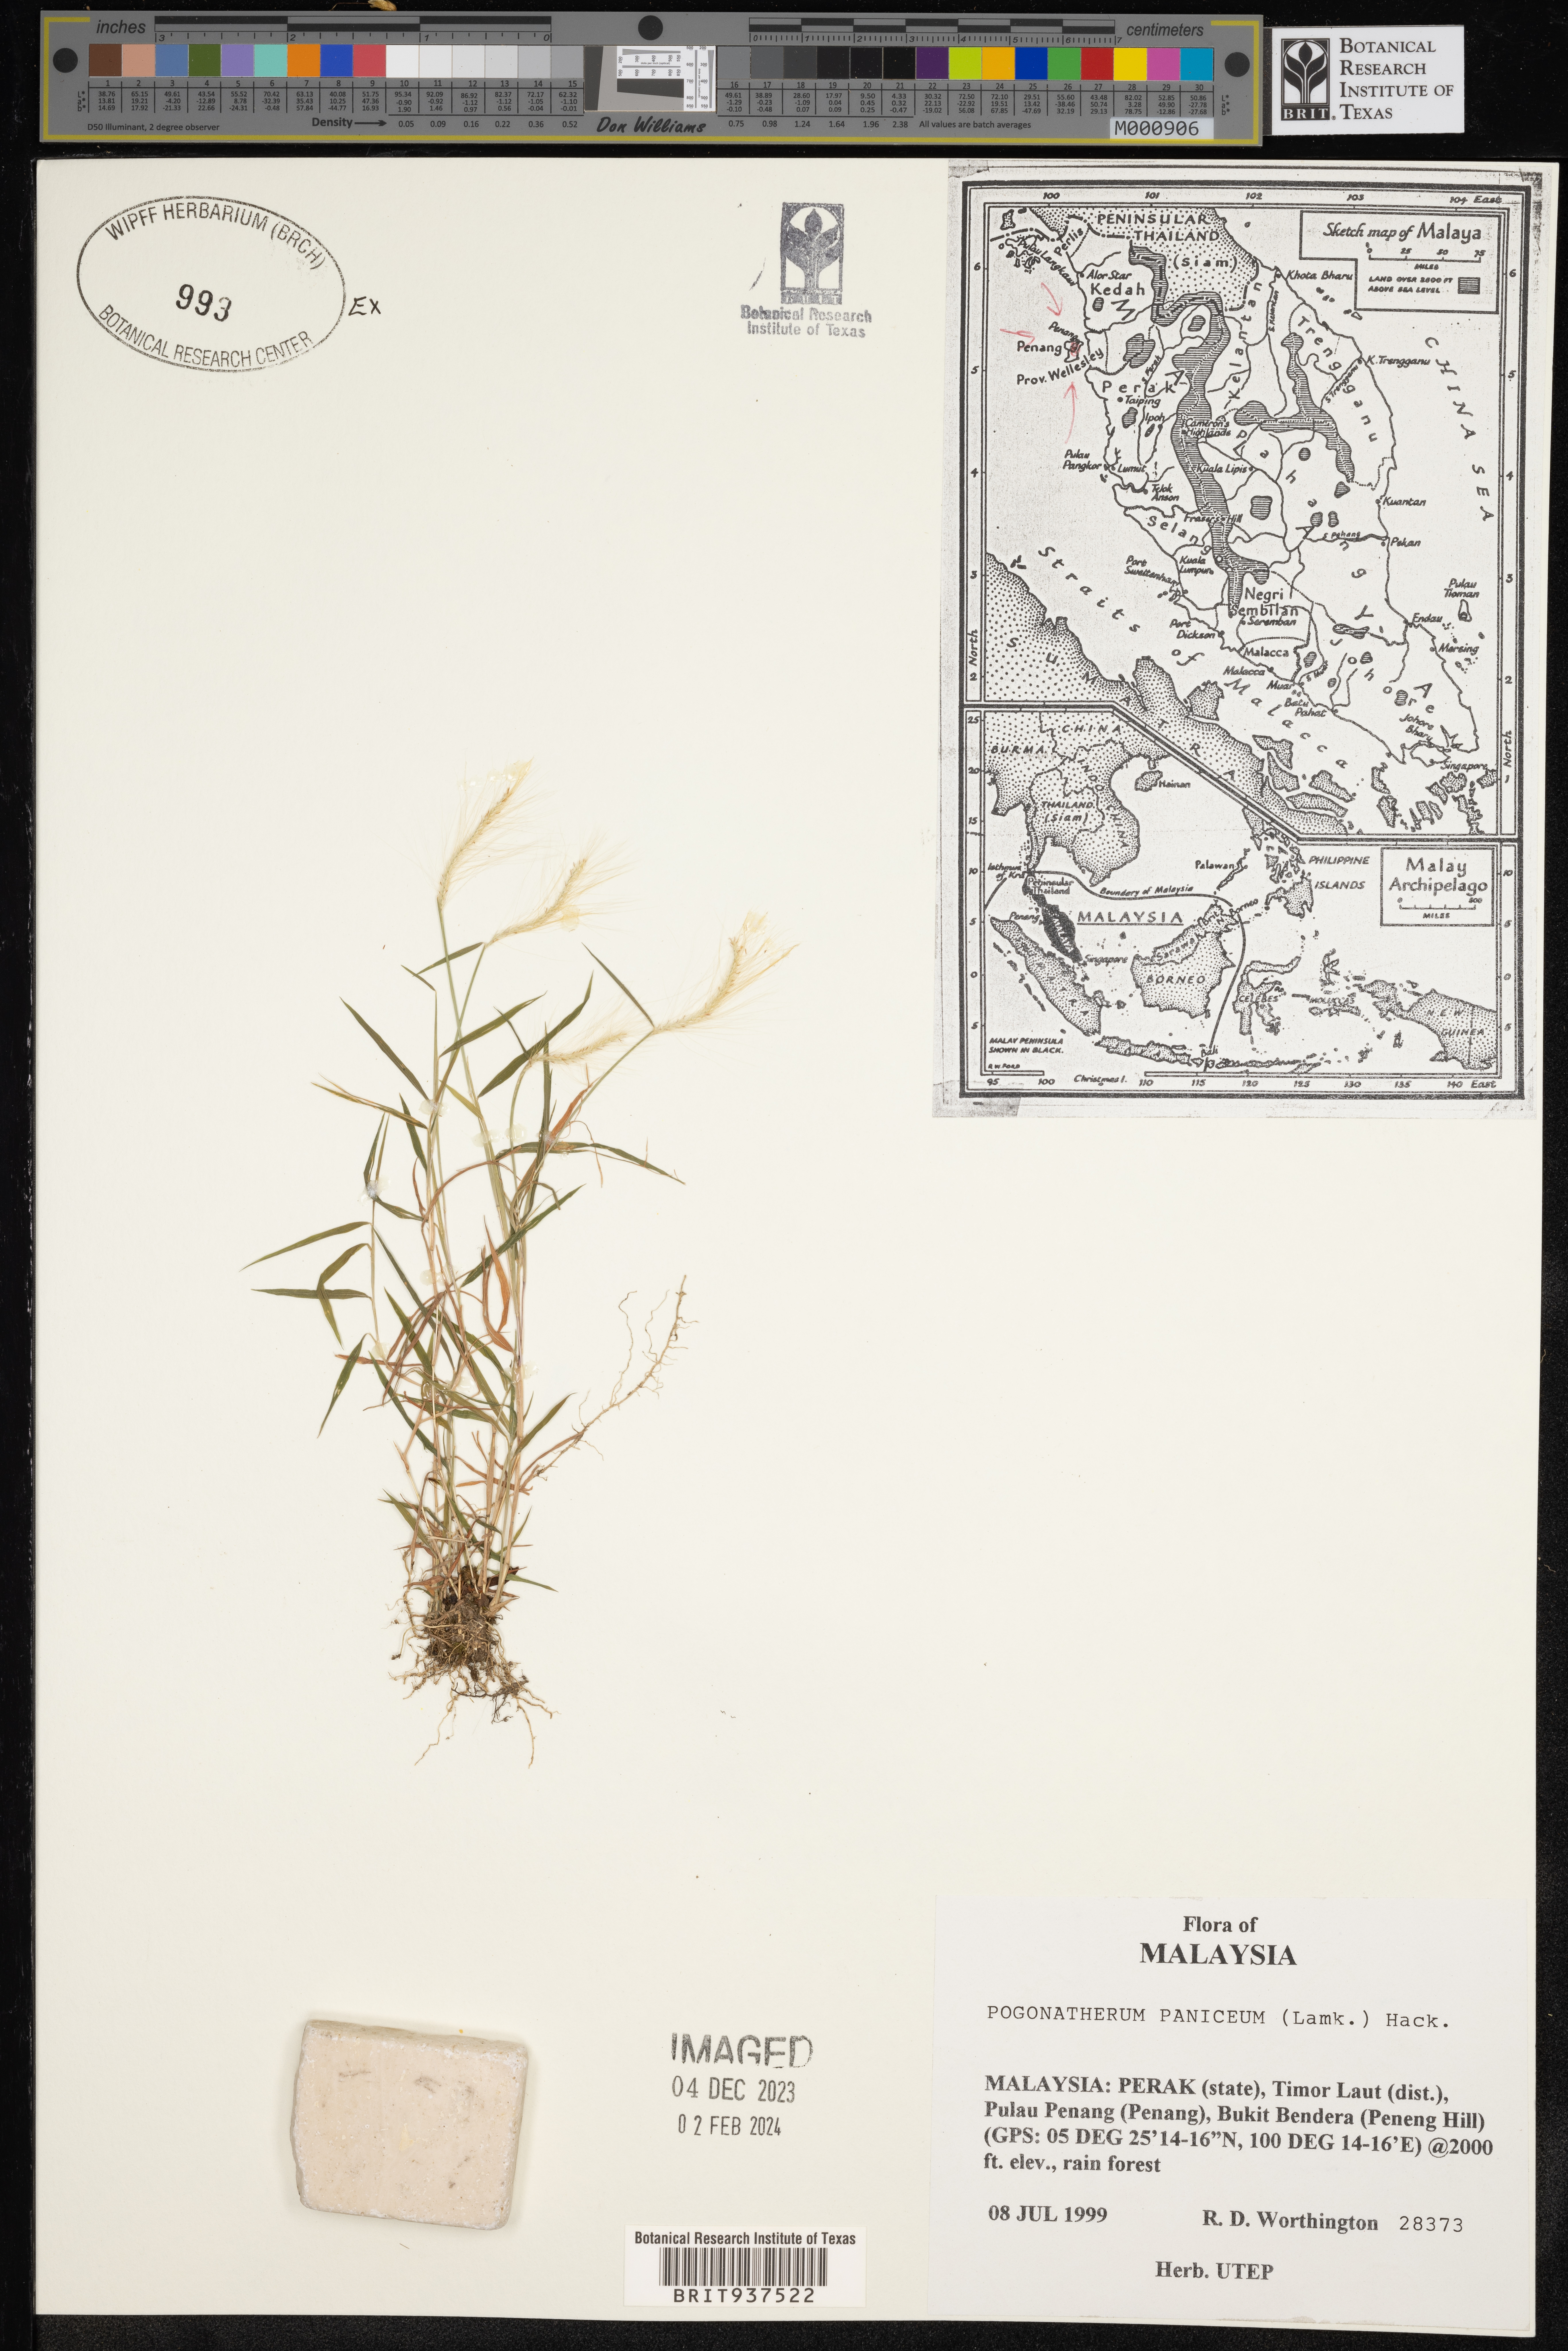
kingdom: Plantae
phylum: Tracheophyta
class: Liliopsida
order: Poales
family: Poaceae
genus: Pogonatherum
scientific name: Pogonatherum
